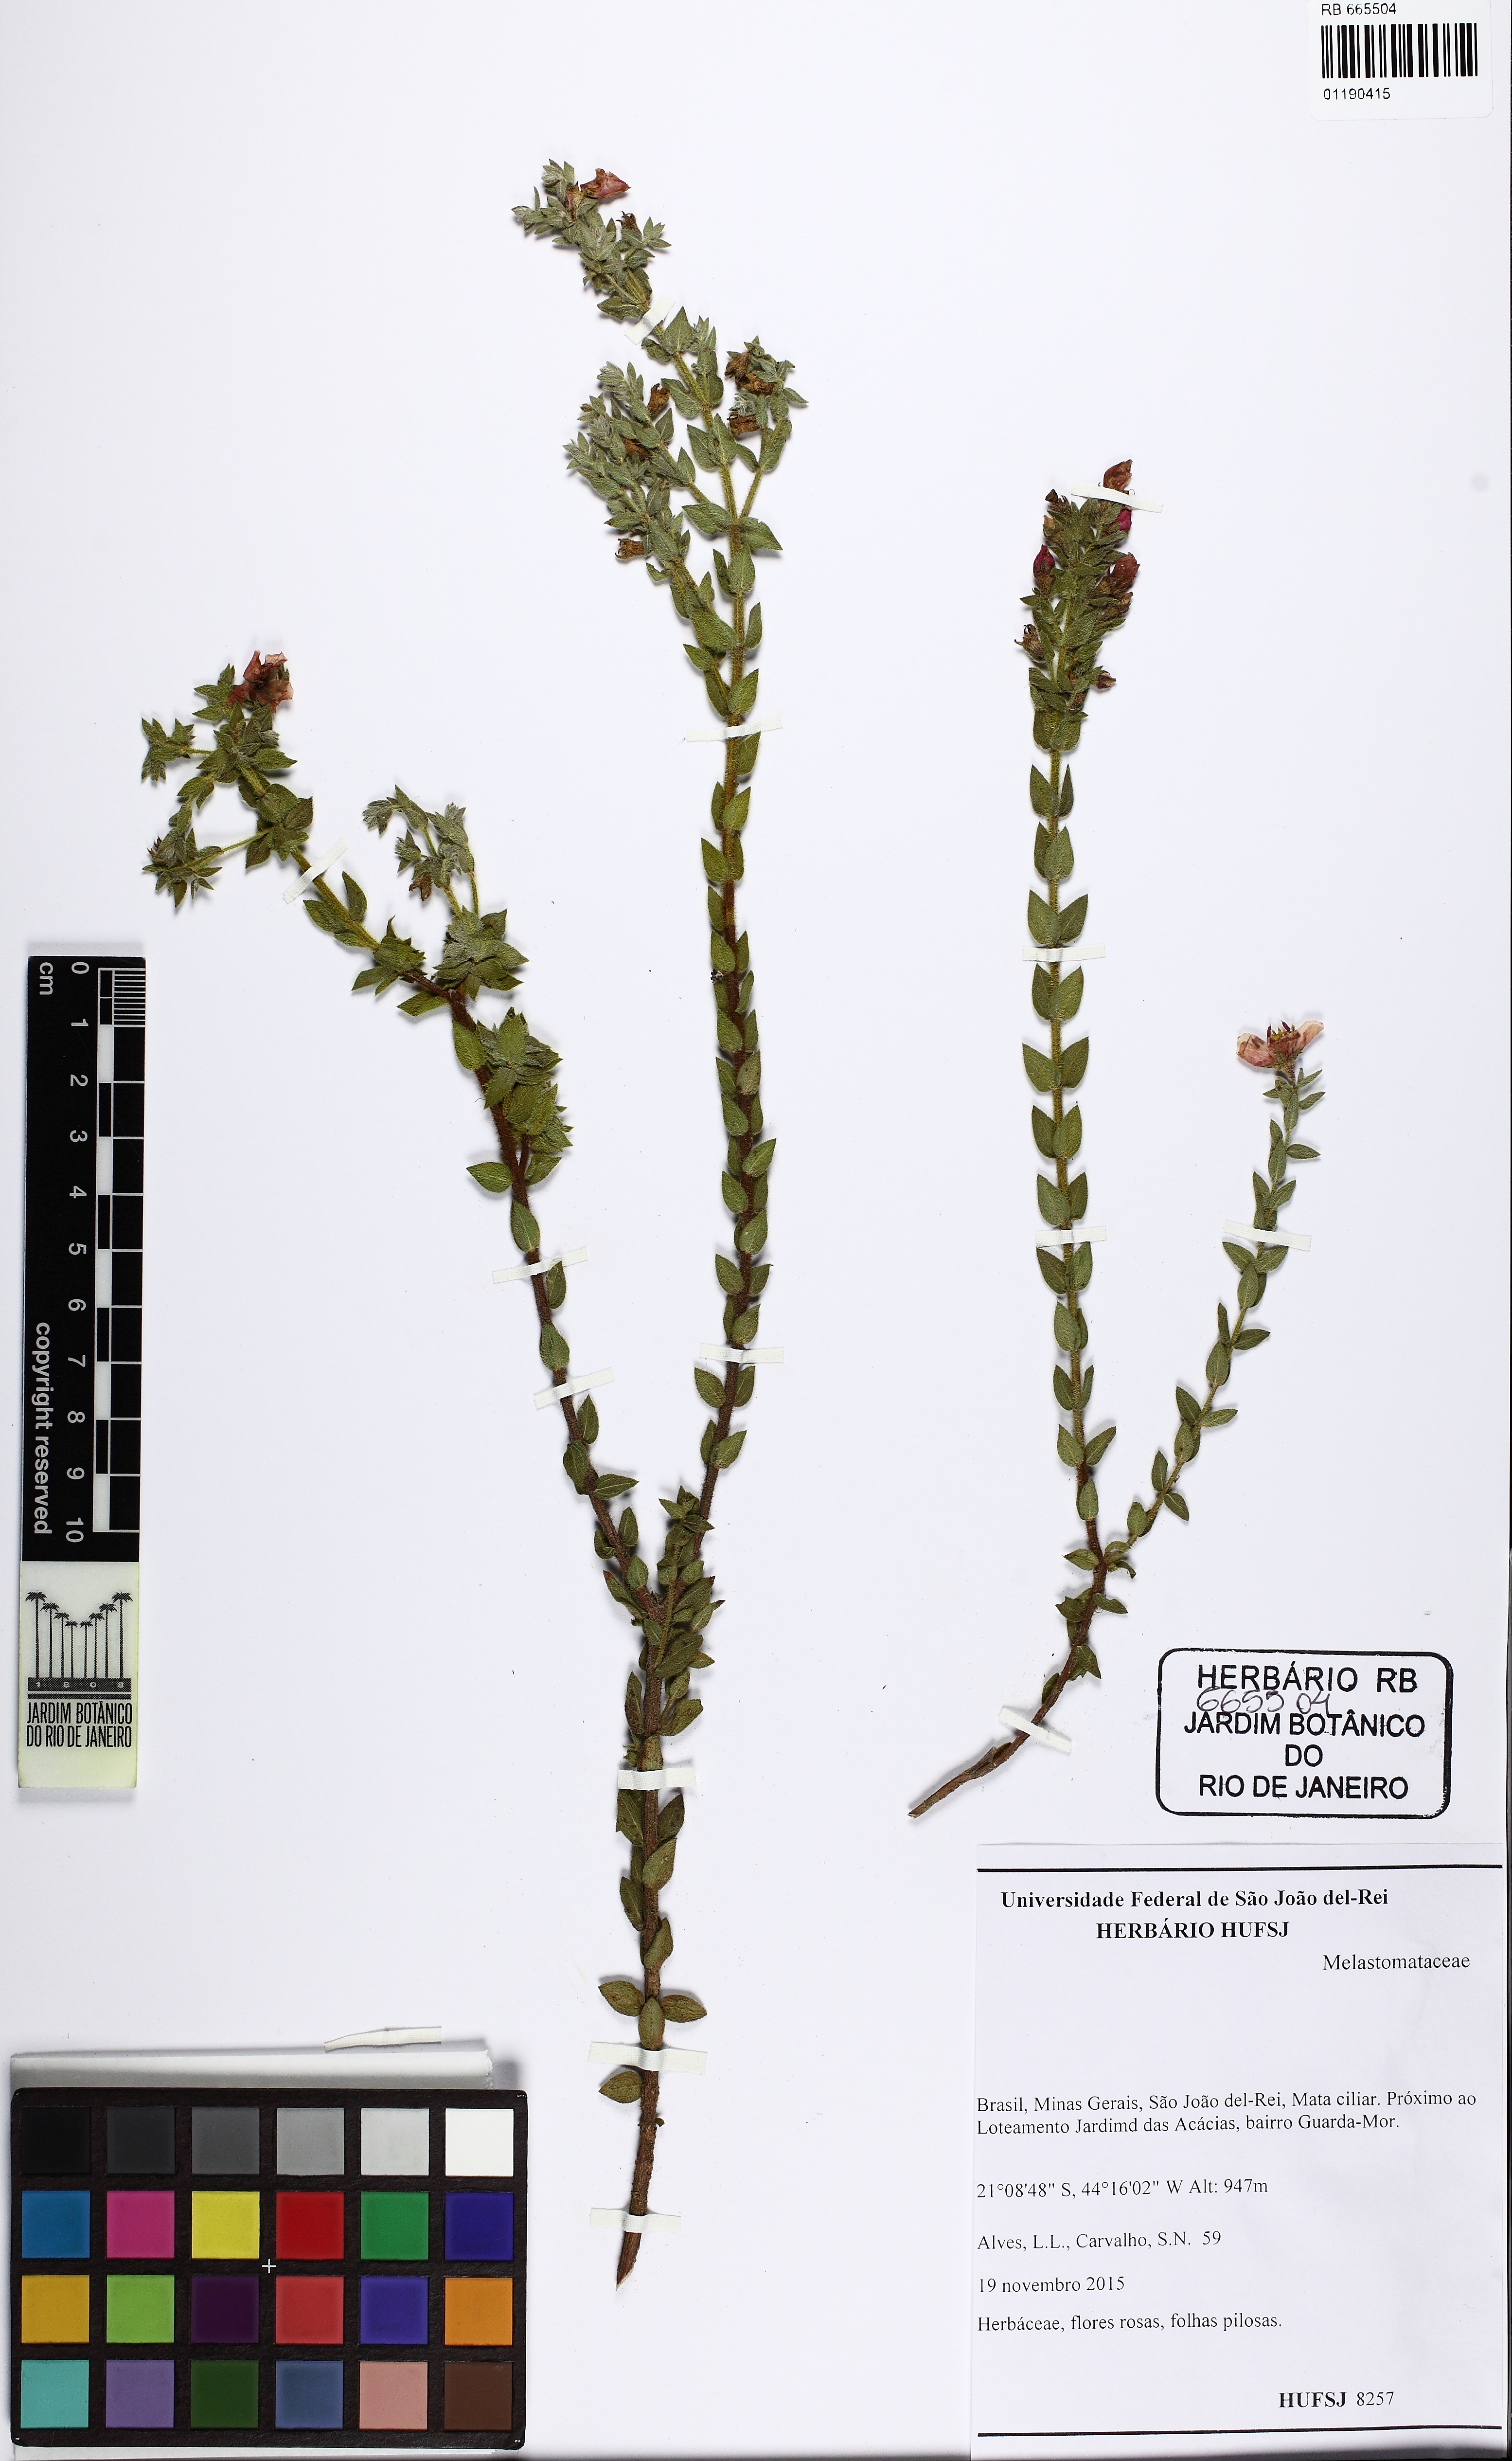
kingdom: Plantae
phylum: Tracheophyta
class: Magnoliopsida
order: Myrtales
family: Melastomataceae
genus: Microlicia
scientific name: Microlicia hirsuta
